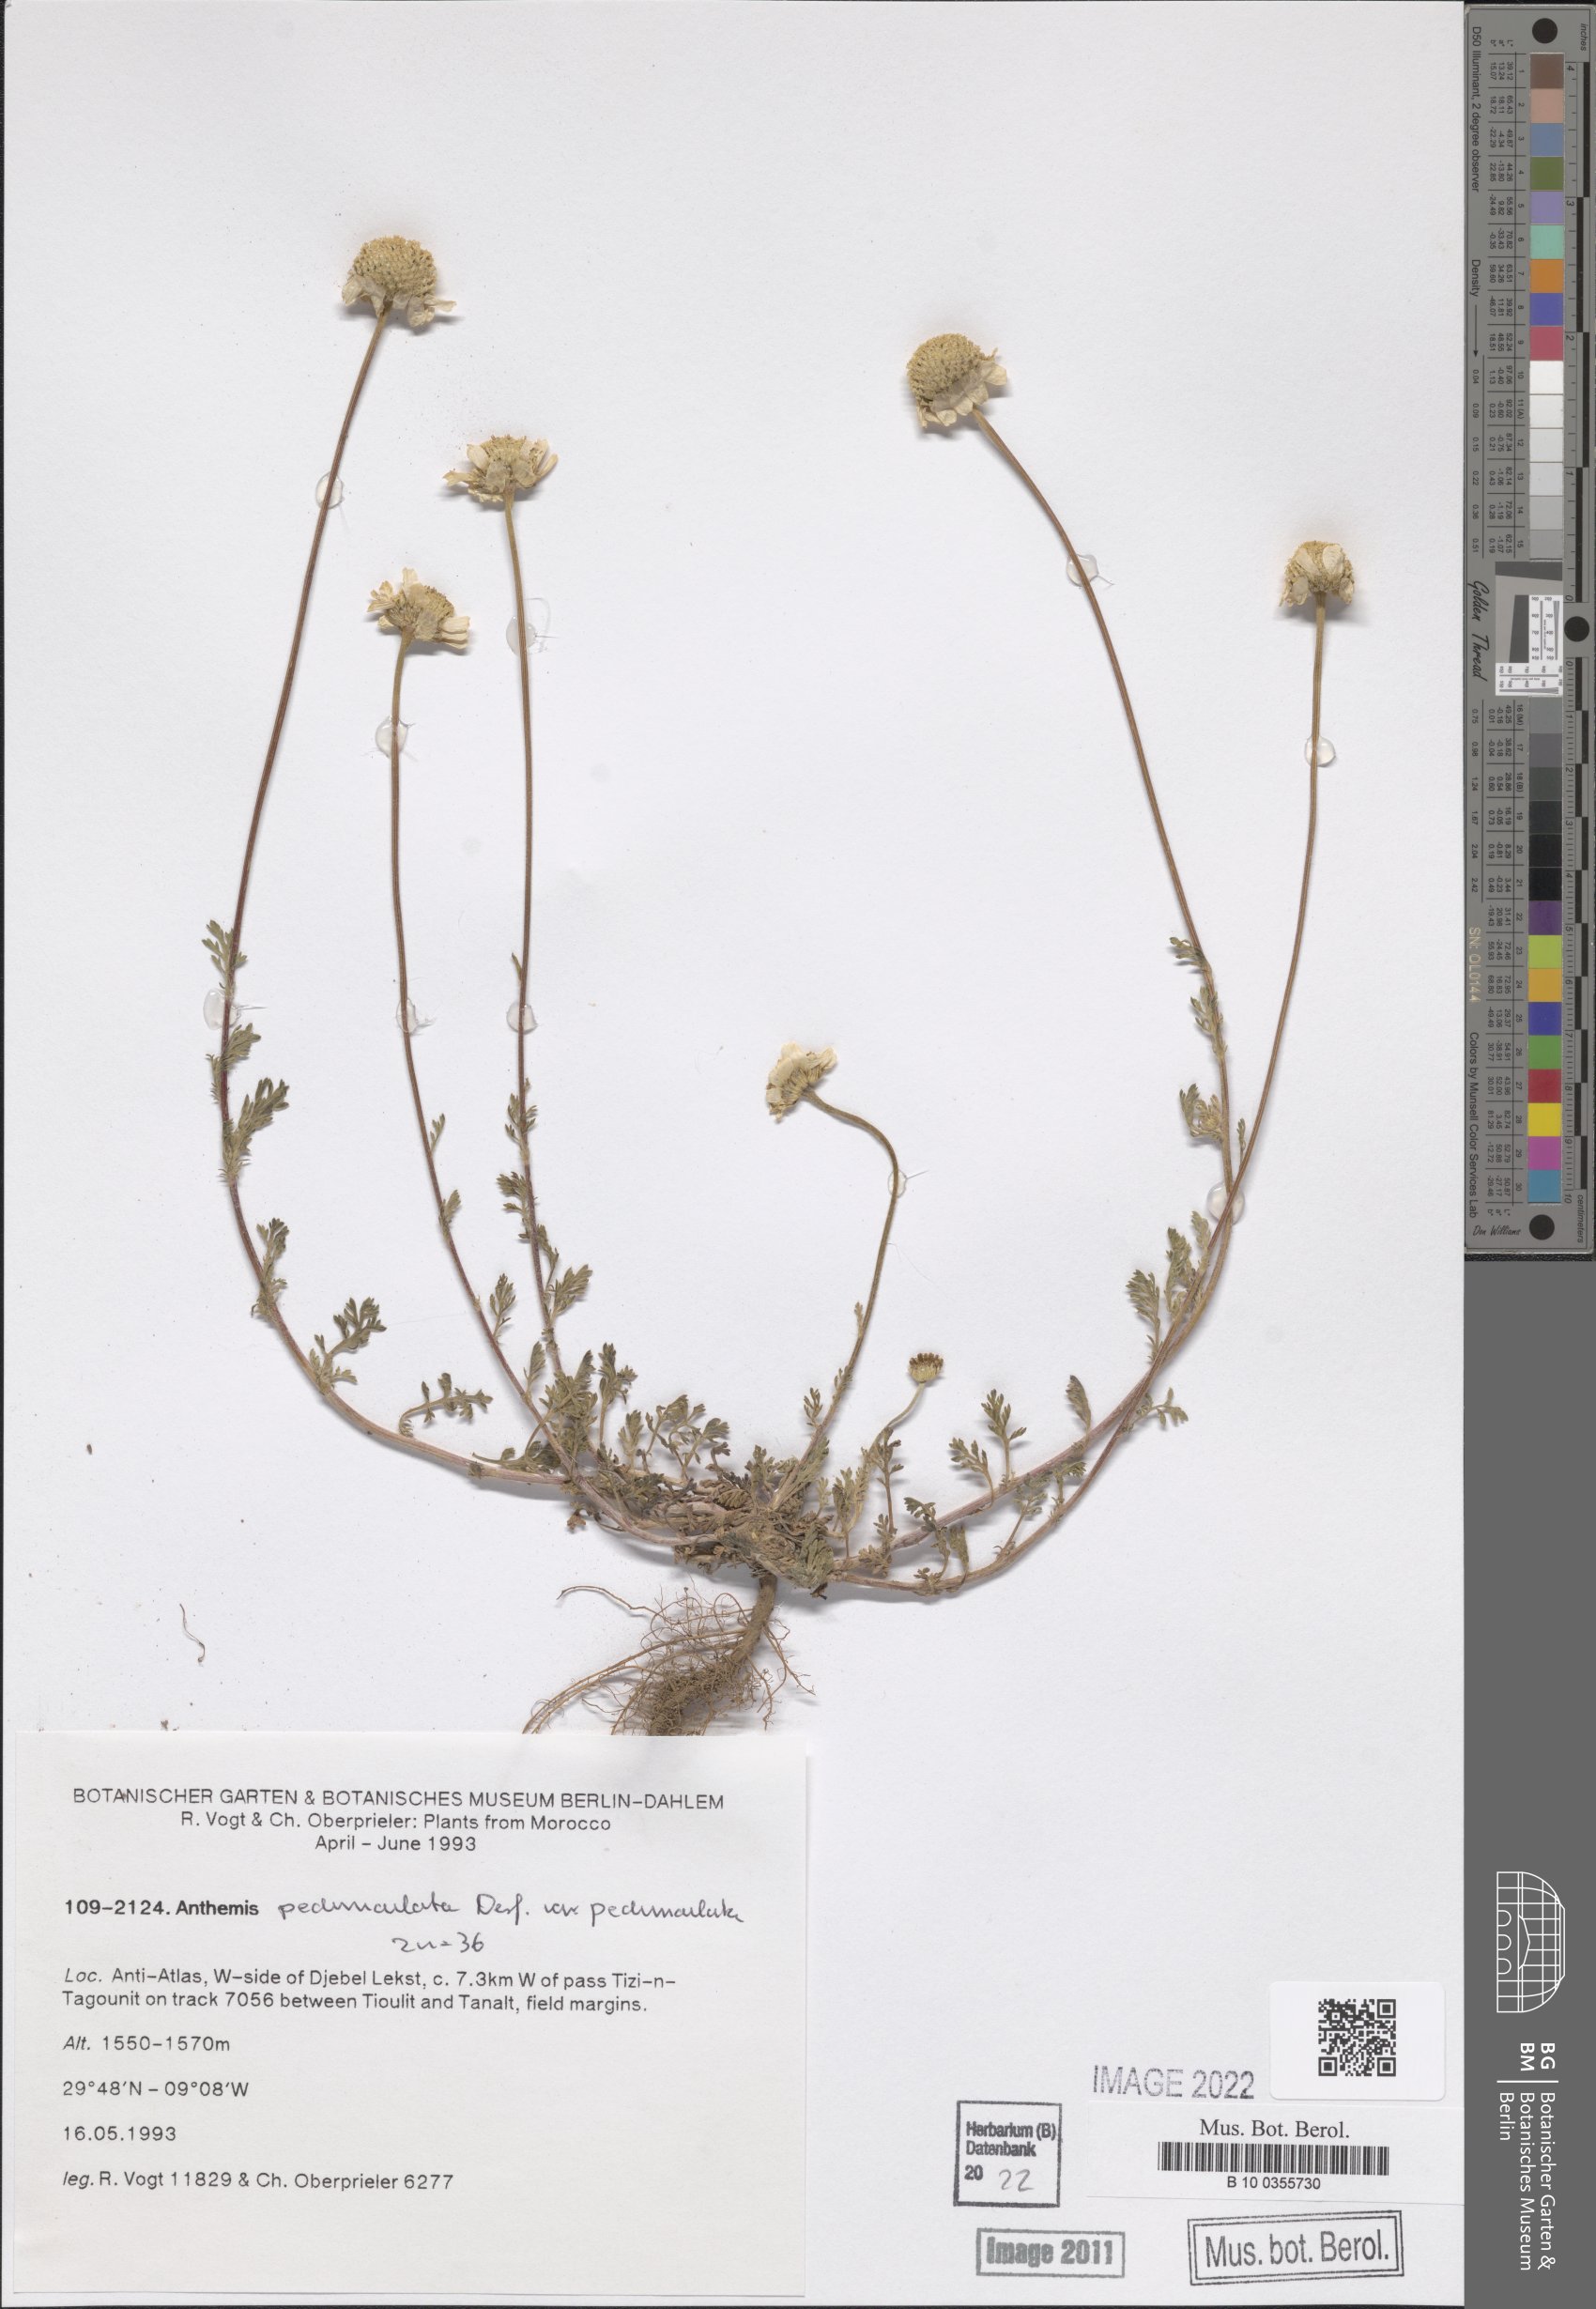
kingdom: Plantae
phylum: Tracheophyta
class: Magnoliopsida
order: Asterales
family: Asteraceae
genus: Anthemis
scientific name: Anthemis pedunculata
